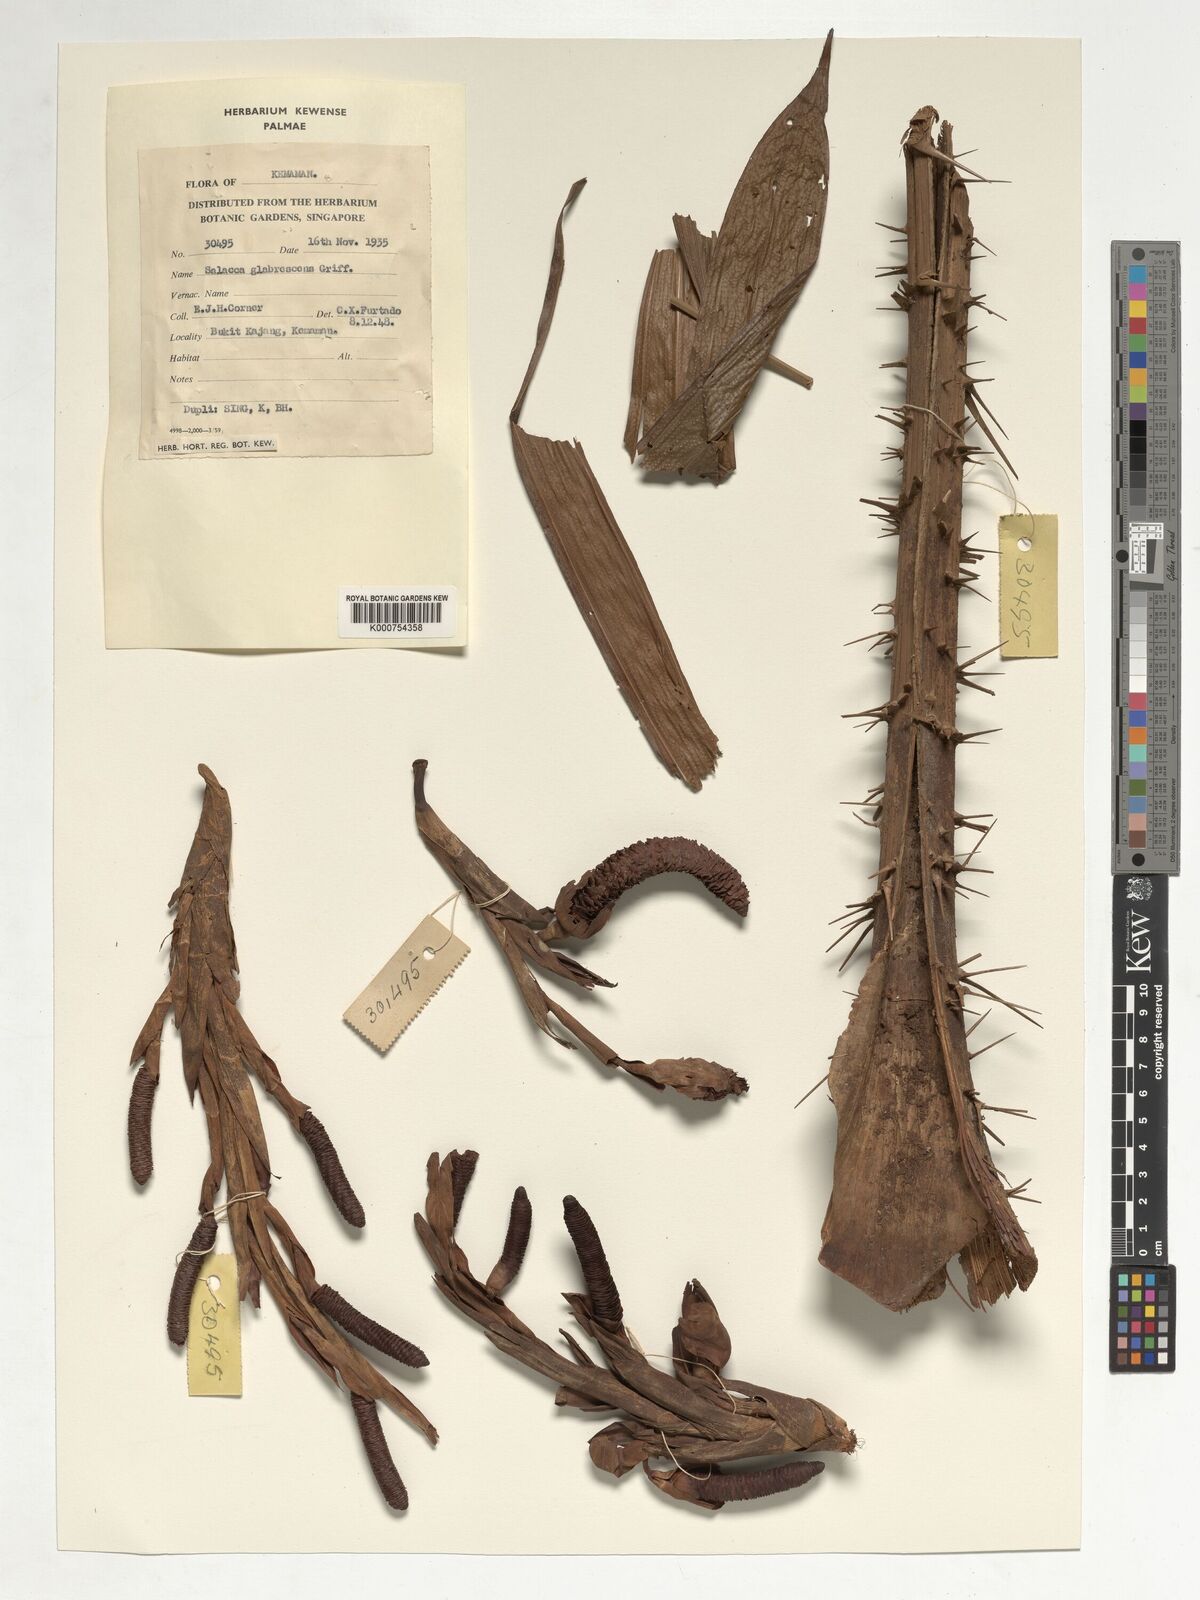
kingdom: Plantae
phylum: Tracheophyta
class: Liliopsida
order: Arecales
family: Arecaceae
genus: Salacca
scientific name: Salacca glabrescens
